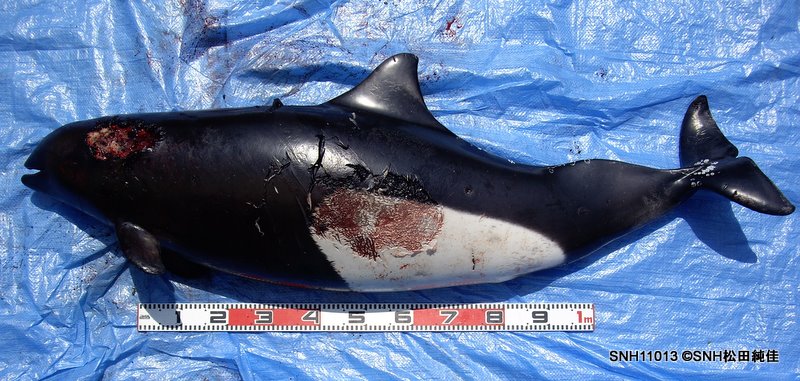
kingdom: Animalia
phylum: Chordata
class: Mammalia
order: Cetacea
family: Phocoenidae
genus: Phocoenoides
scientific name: Phocoenoides dalli
